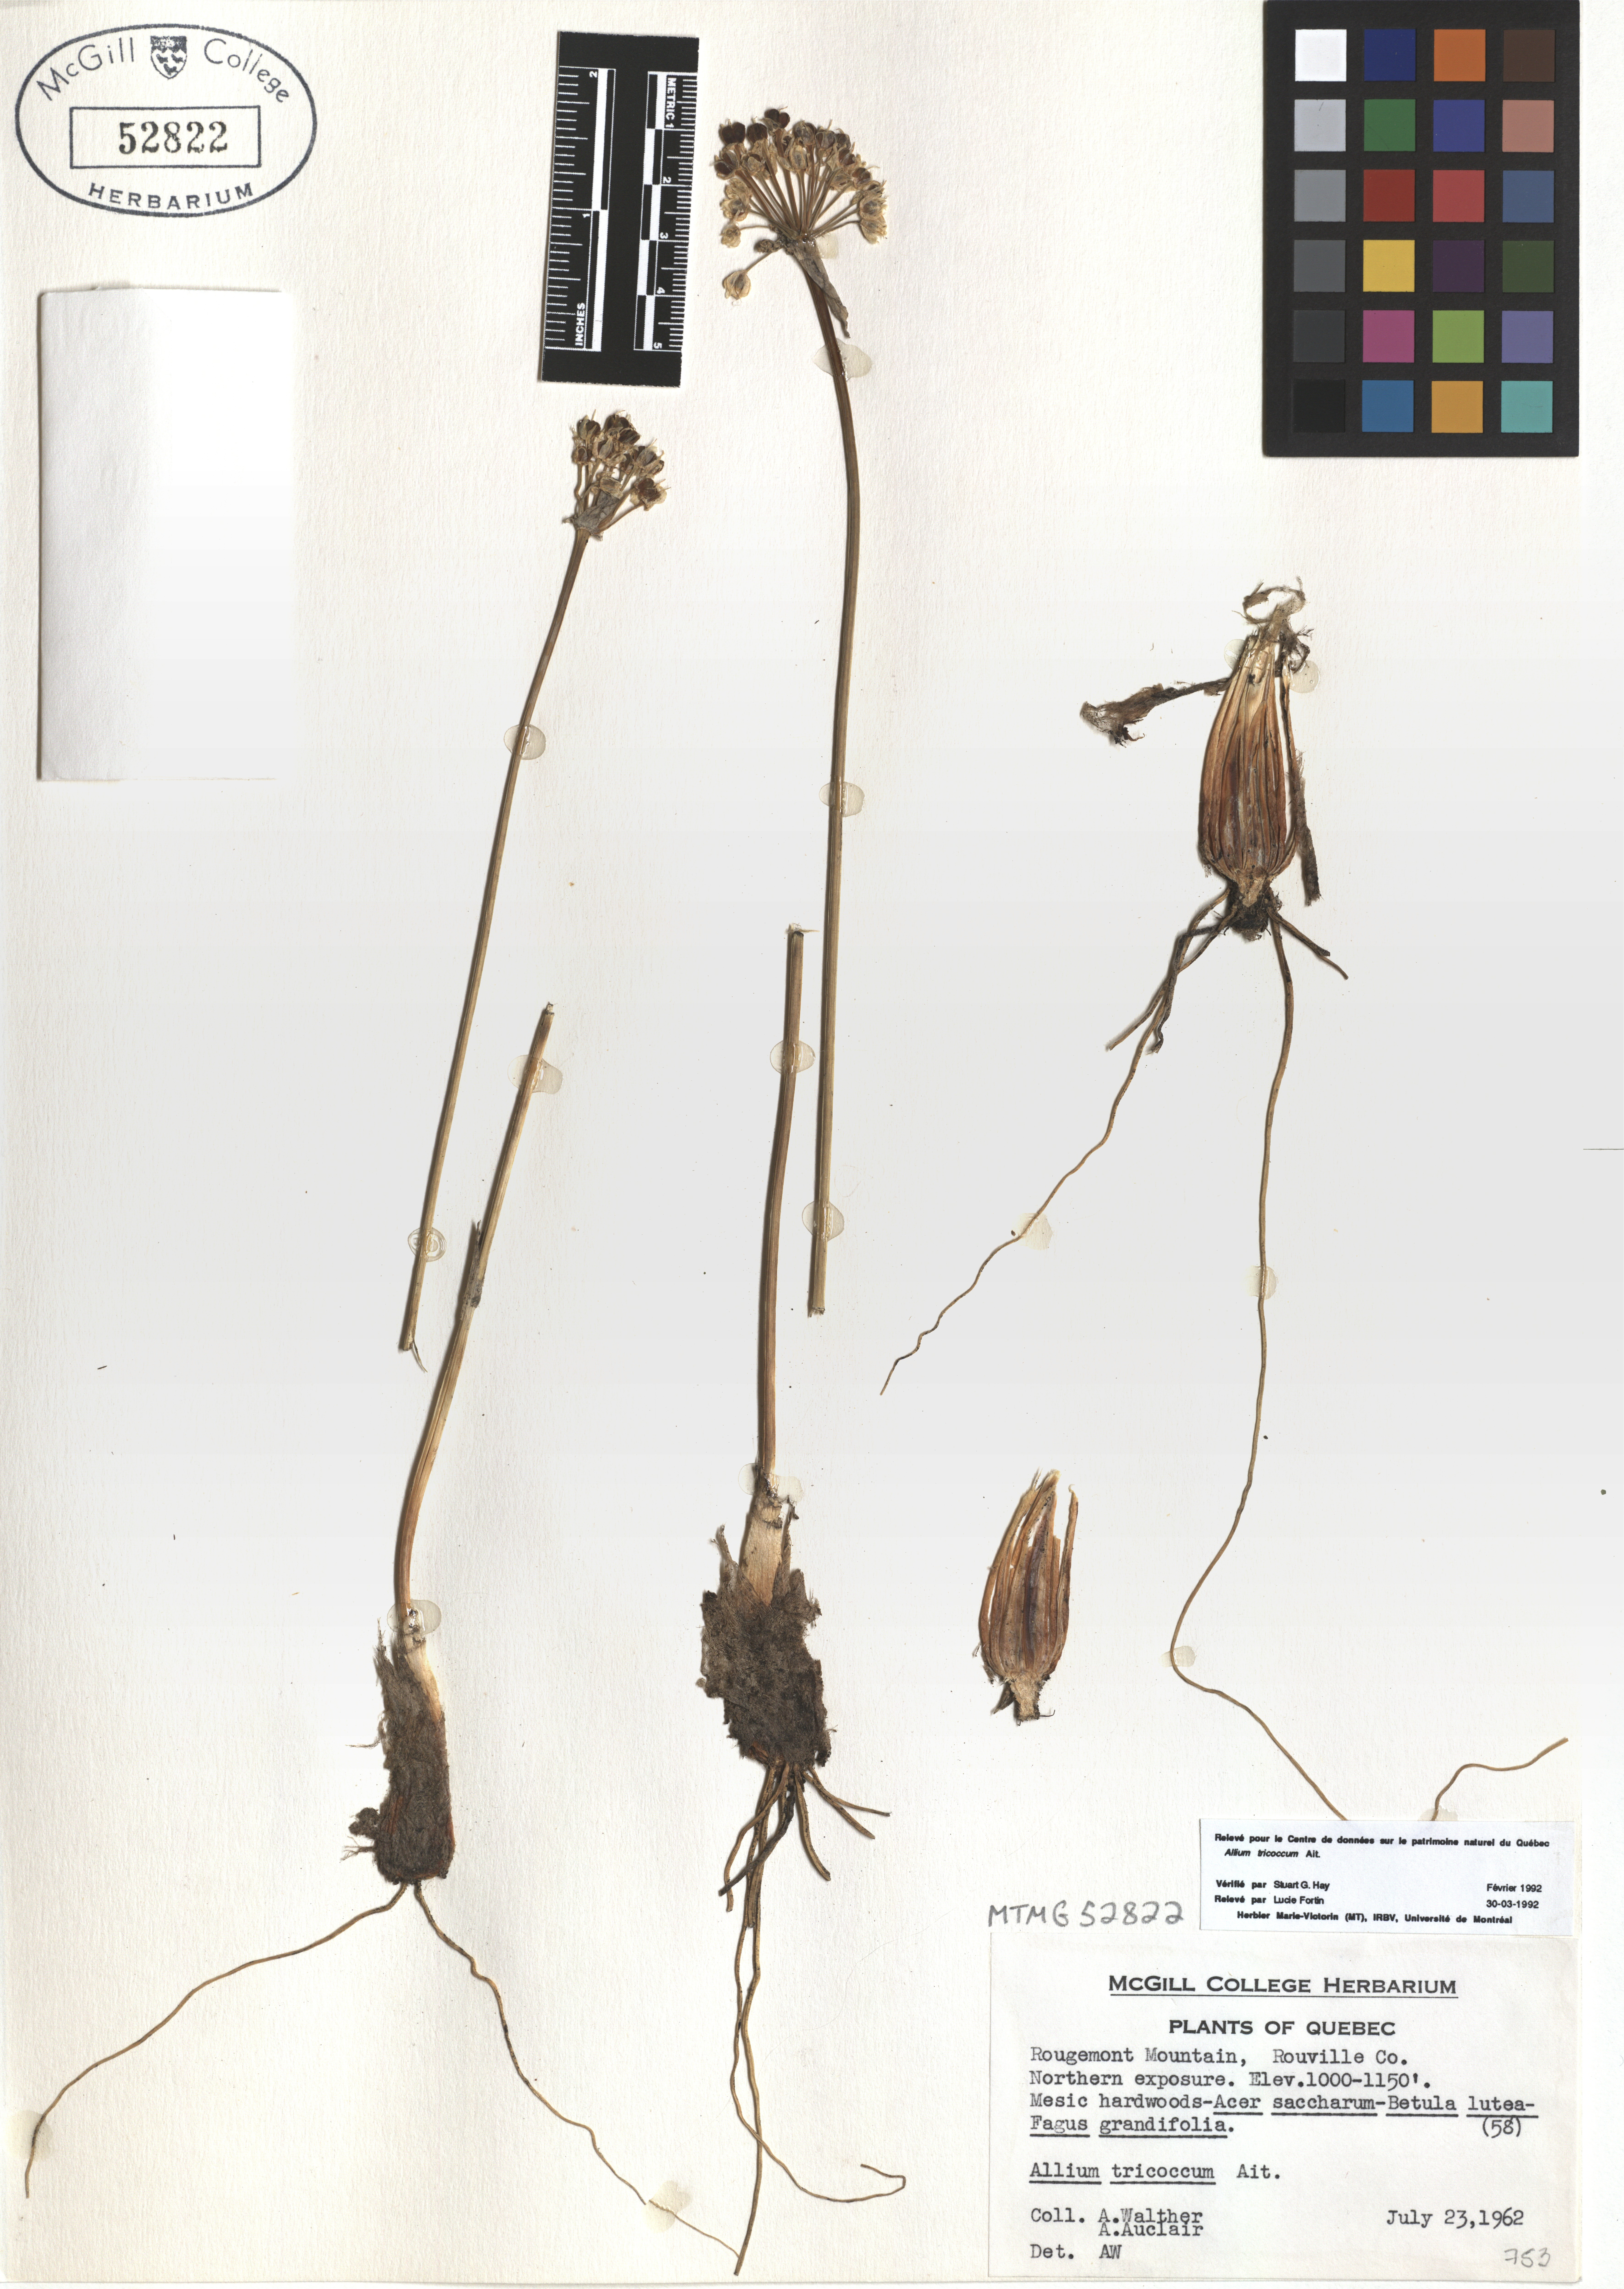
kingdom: Plantae
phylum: Tracheophyta
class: Liliopsida
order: Asparagales
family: Amaryllidaceae
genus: Allium
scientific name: Allium tricoccum
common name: Ramp
